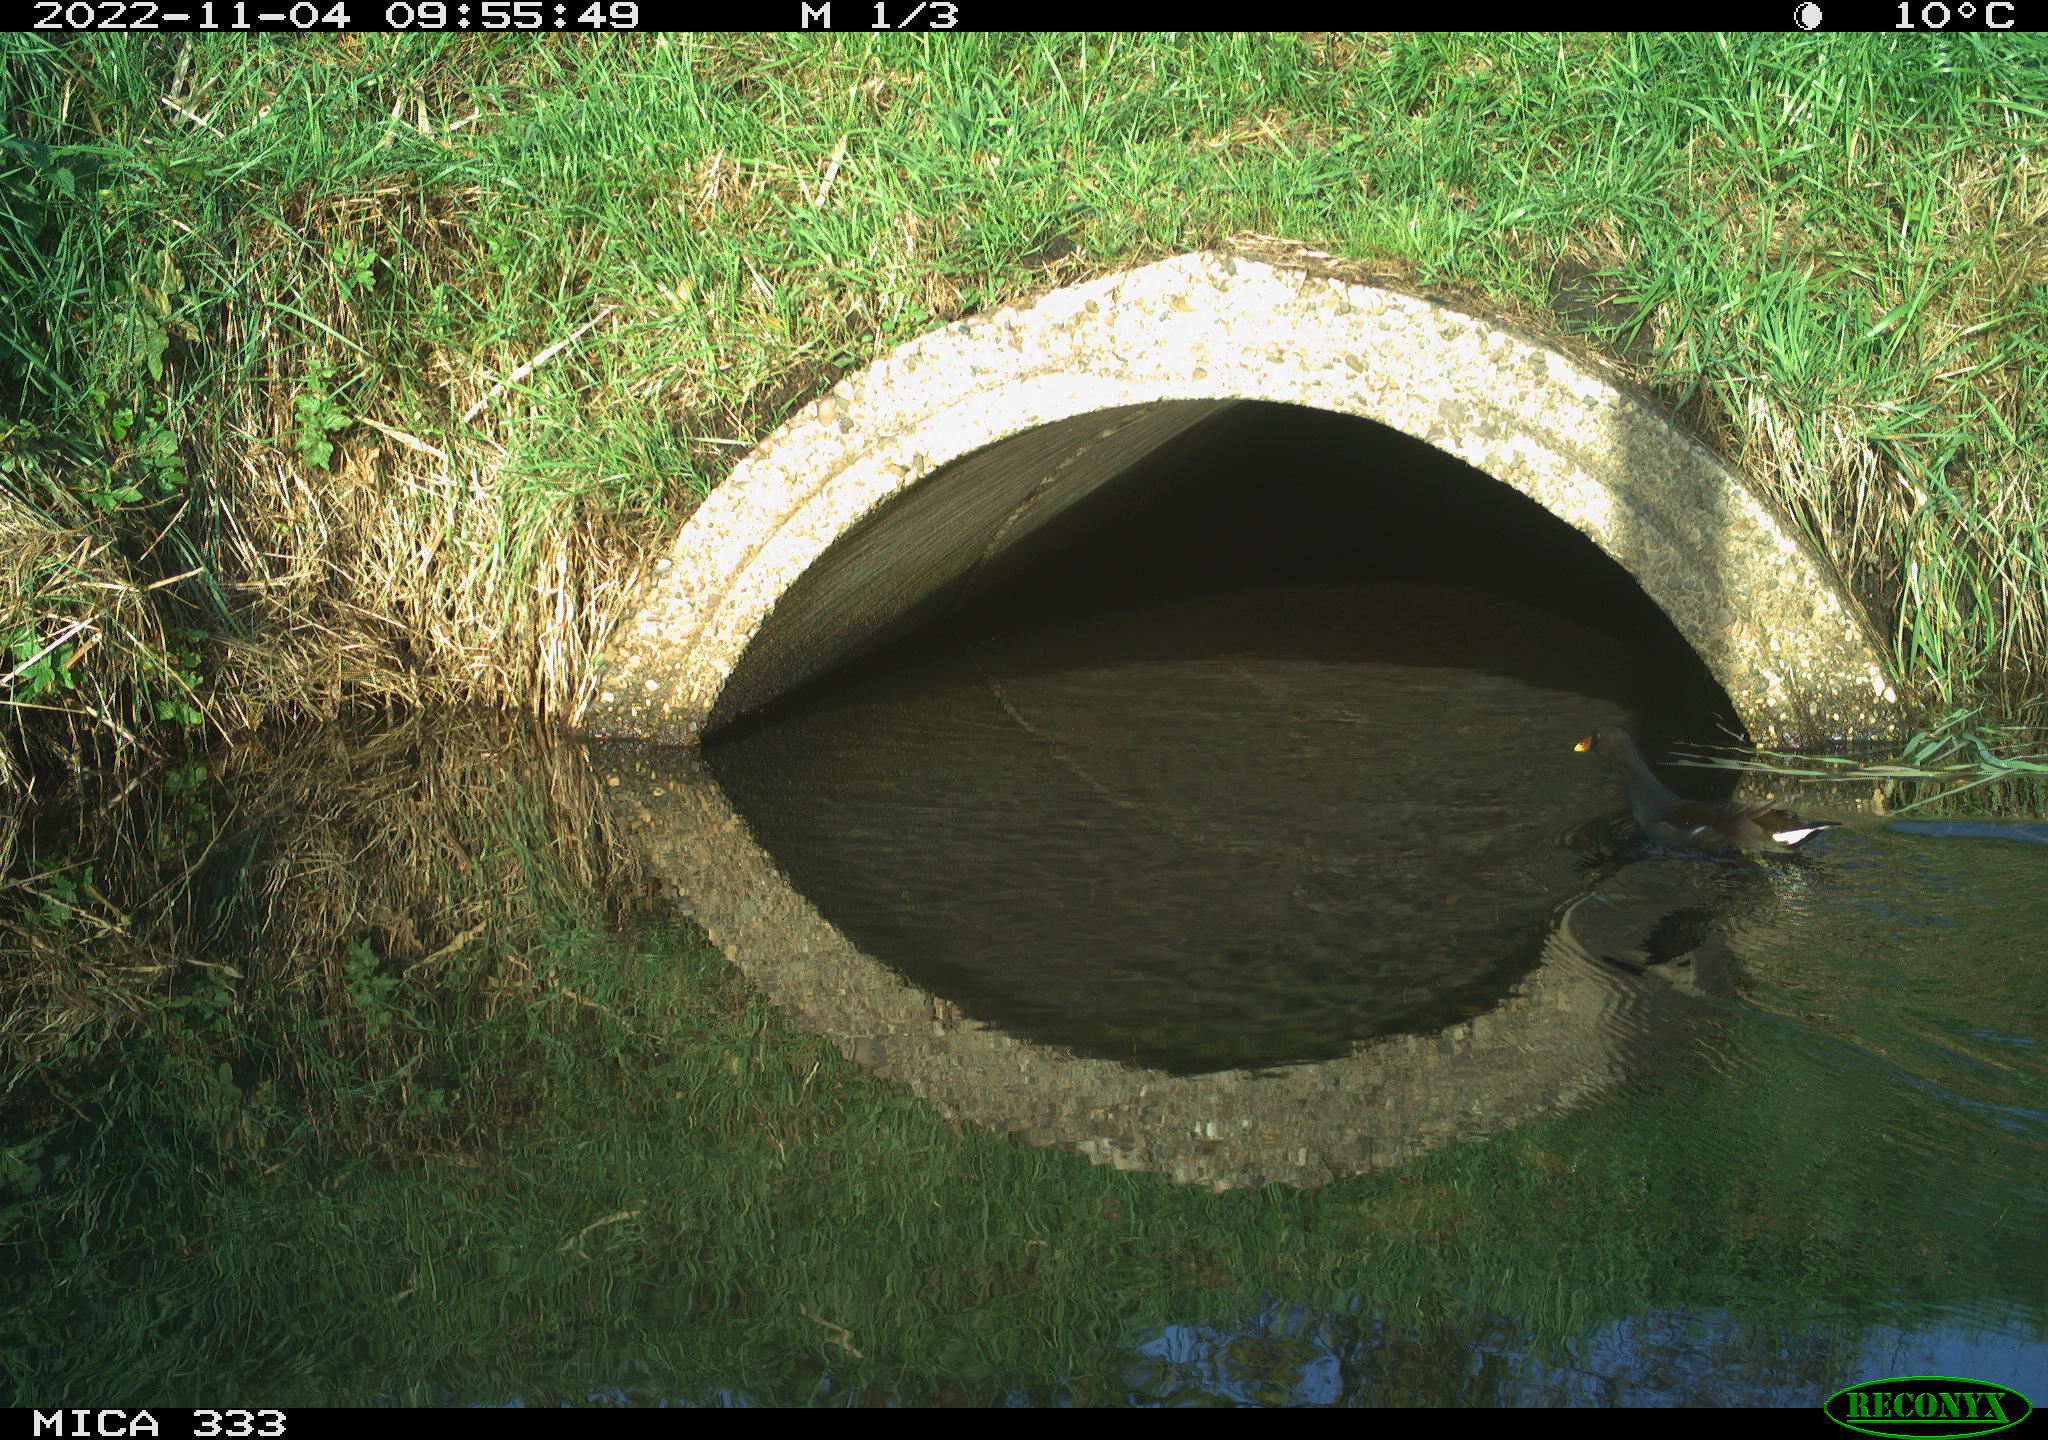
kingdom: Animalia
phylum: Chordata
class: Aves
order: Gruiformes
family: Rallidae
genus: Gallinula
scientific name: Gallinula chloropus
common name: Common moorhen
